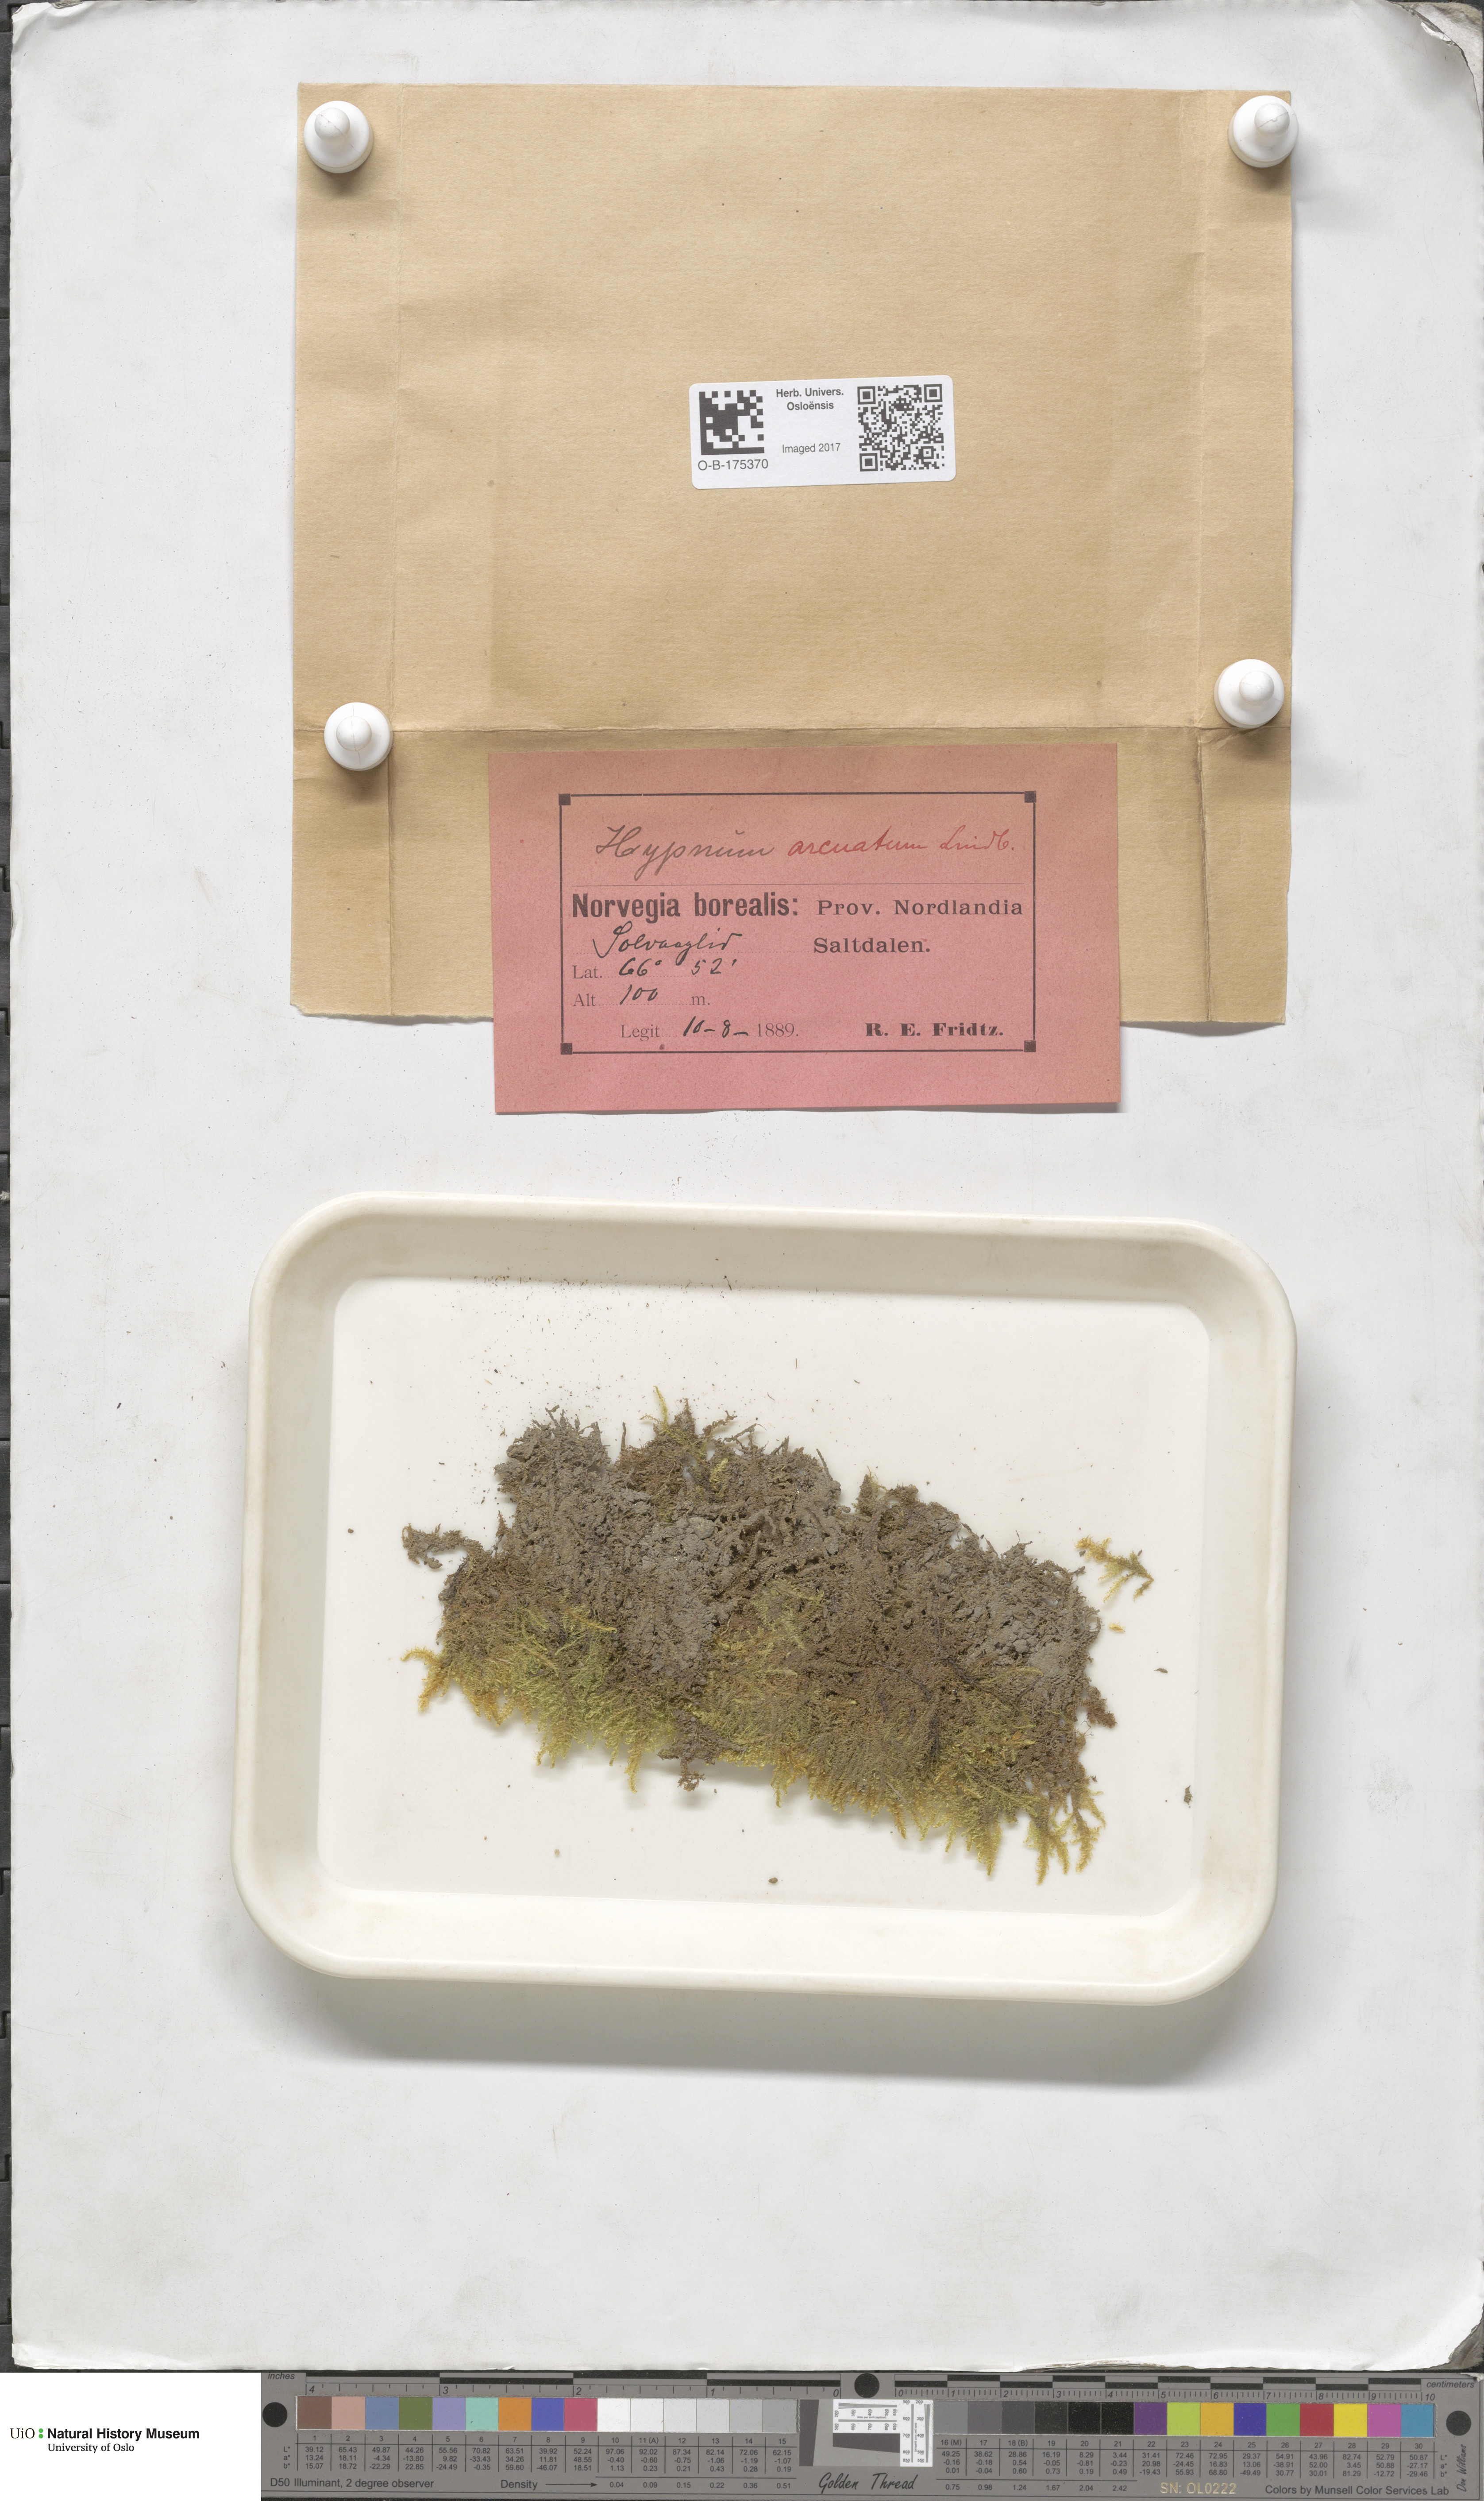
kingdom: Plantae
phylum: Bryophyta
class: Bryopsida
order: Hypnales
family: Pylaisiaceae
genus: Calliergonella
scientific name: Calliergonella lindbergii
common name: Lindberg's plait-moss
